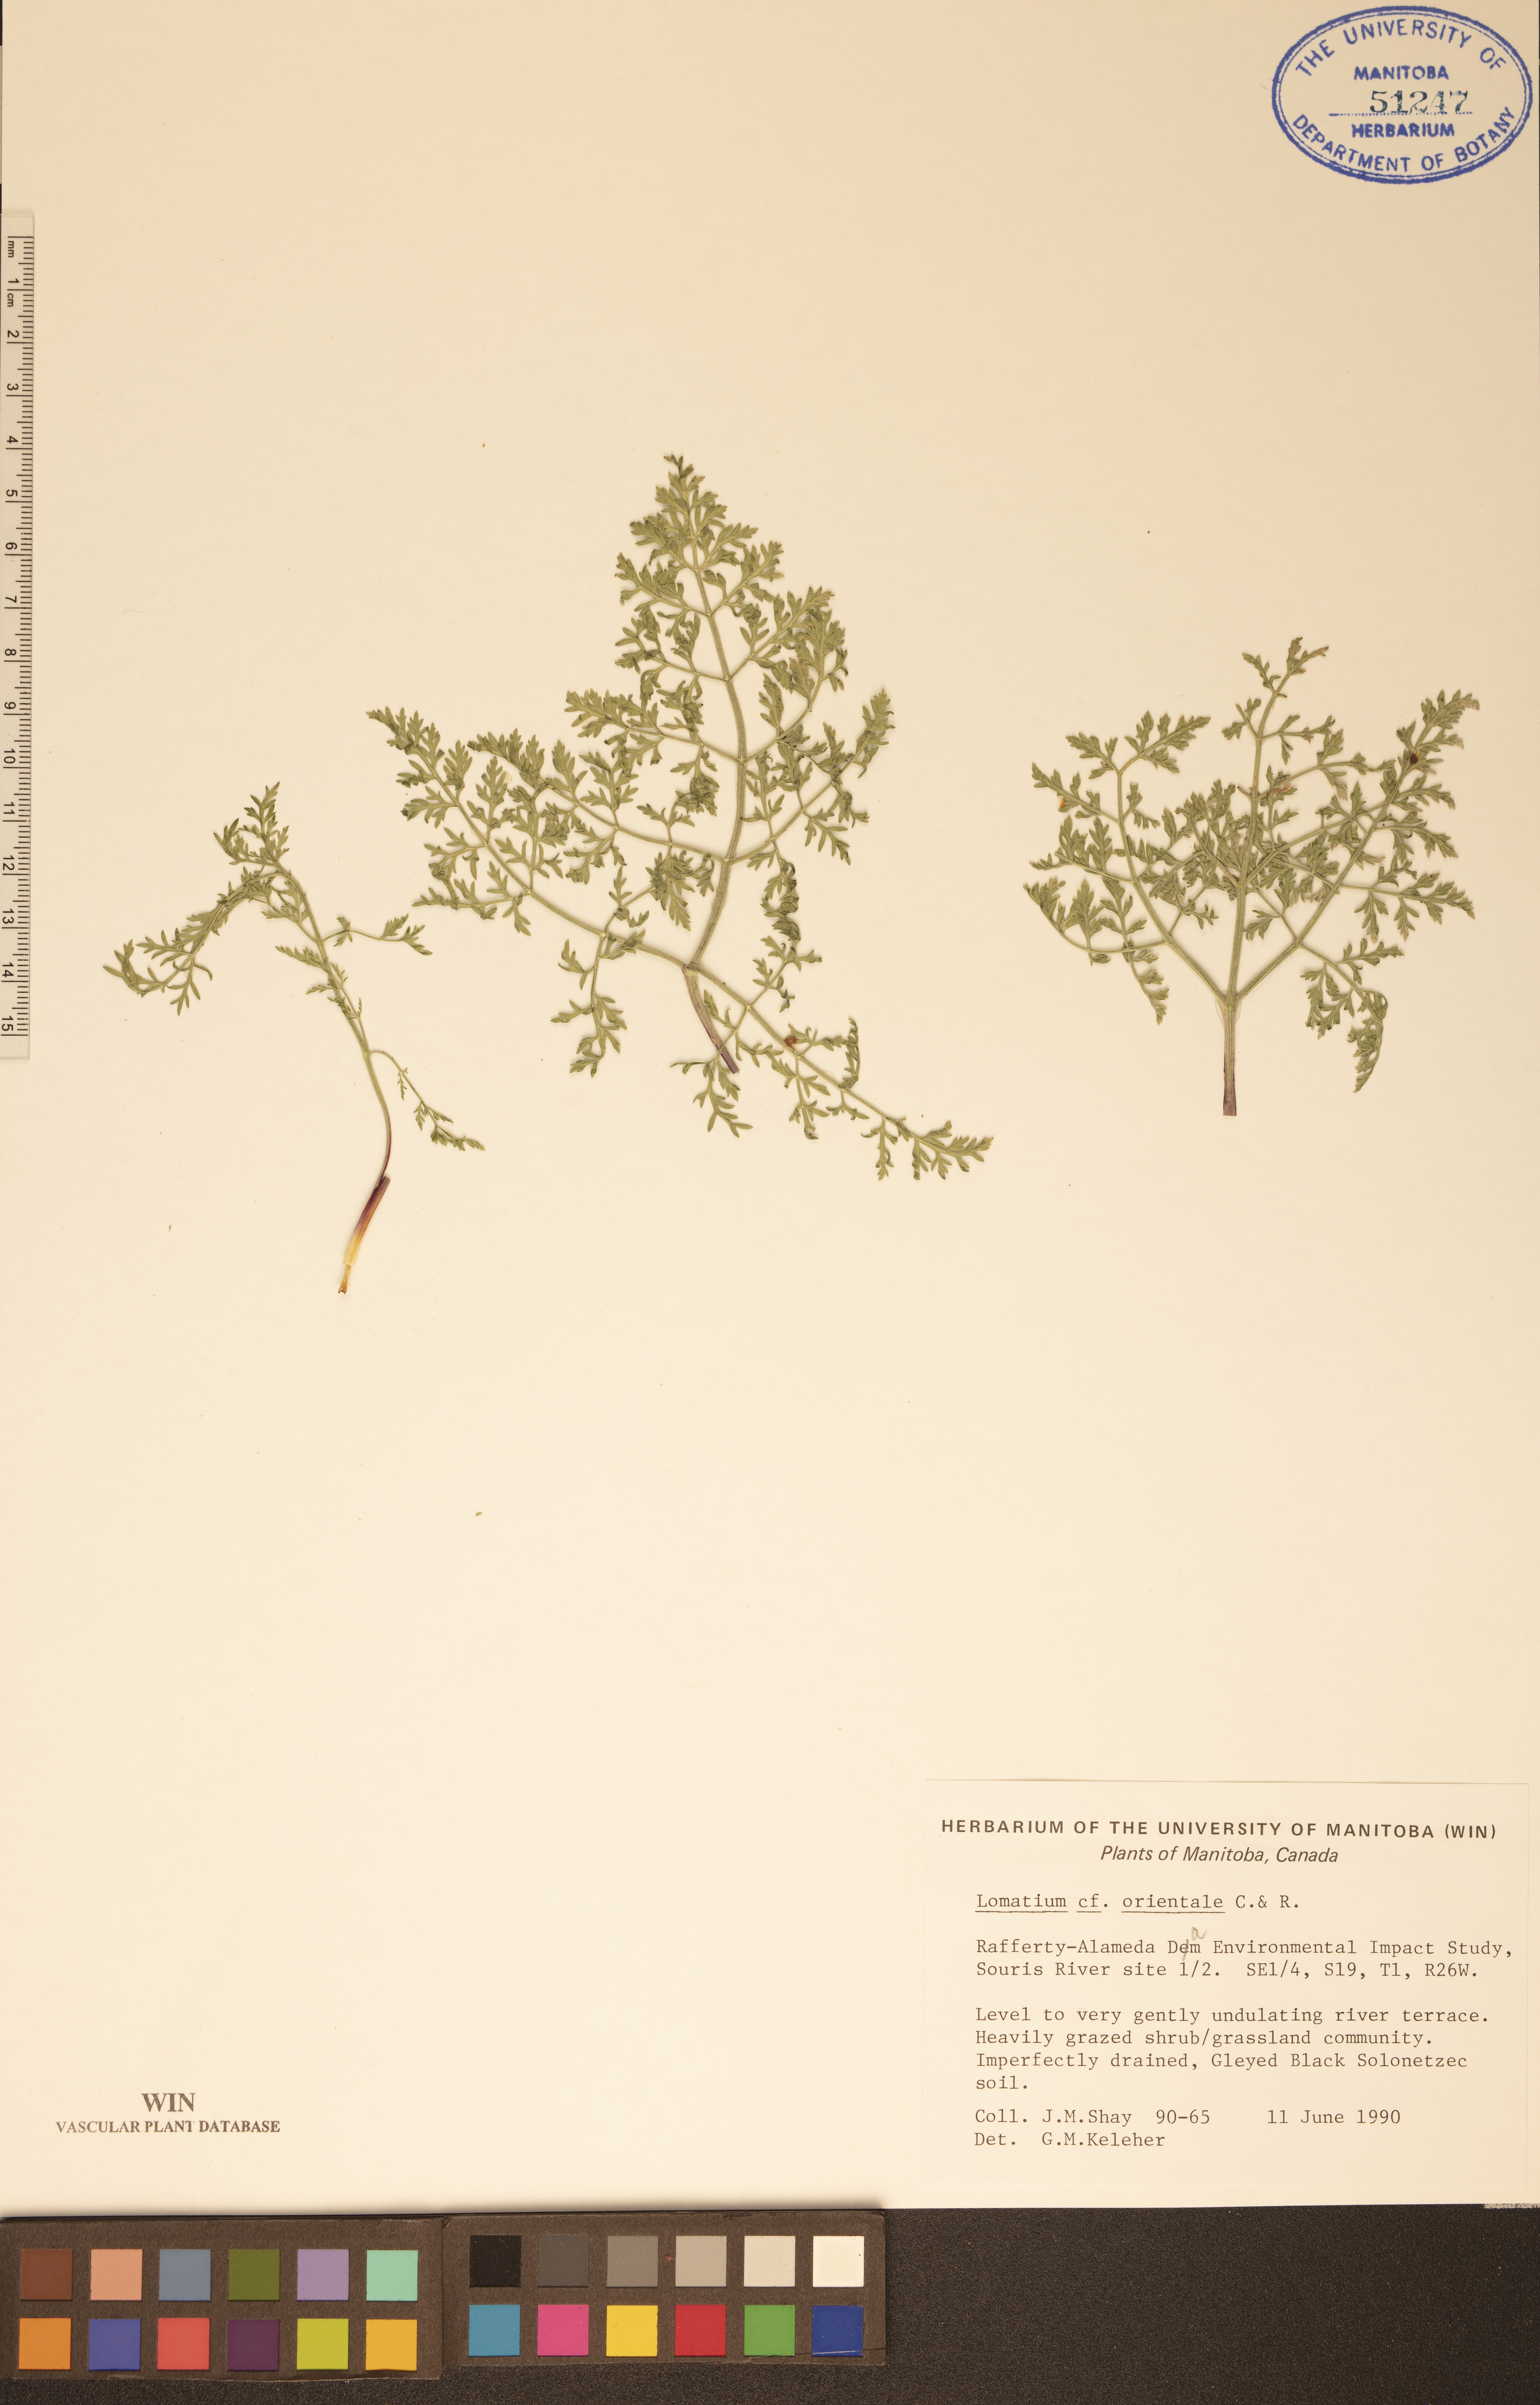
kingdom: Plantae
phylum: Tracheophyta
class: Magnoliopsida
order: Apiales
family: Apiaceae
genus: Lomatium
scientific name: Lomatium orientale
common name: Eastern cous
